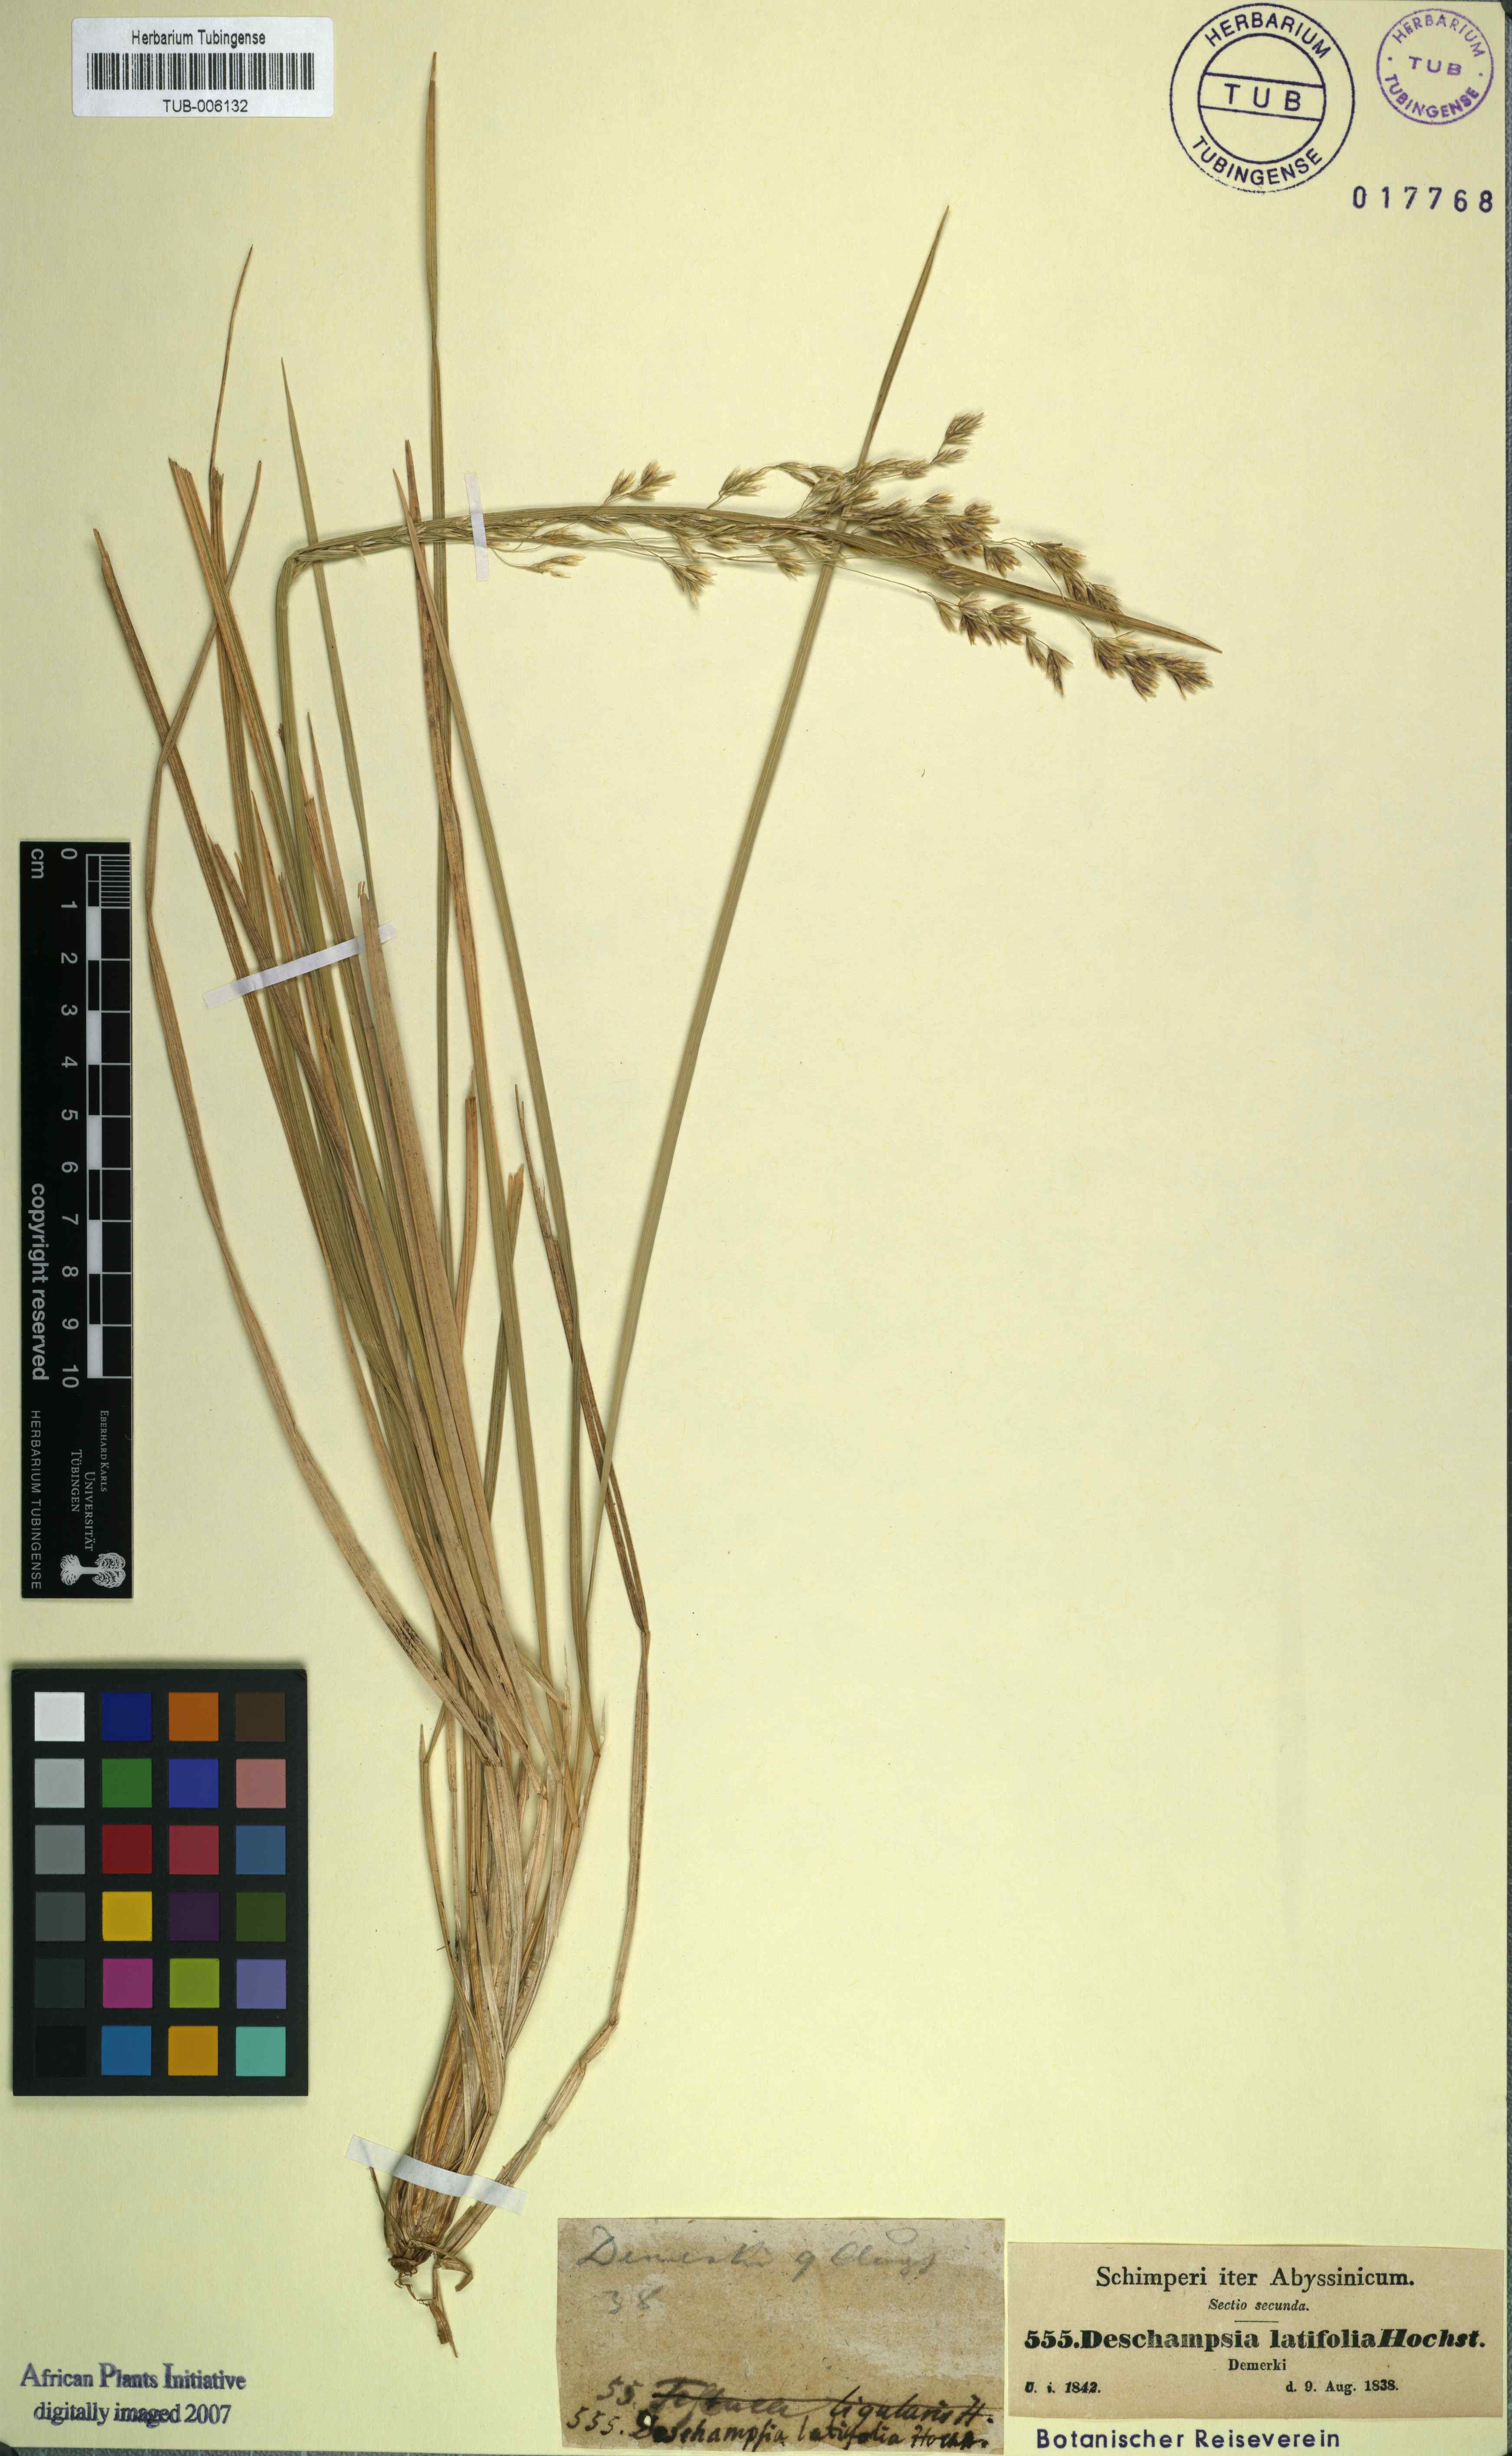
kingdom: Plantae
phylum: Tracheophyta
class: Liliopsida
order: Poales
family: Poaceae
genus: Deschampsia
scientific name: Deschampsia cespitosa
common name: Tufted hair-grass
